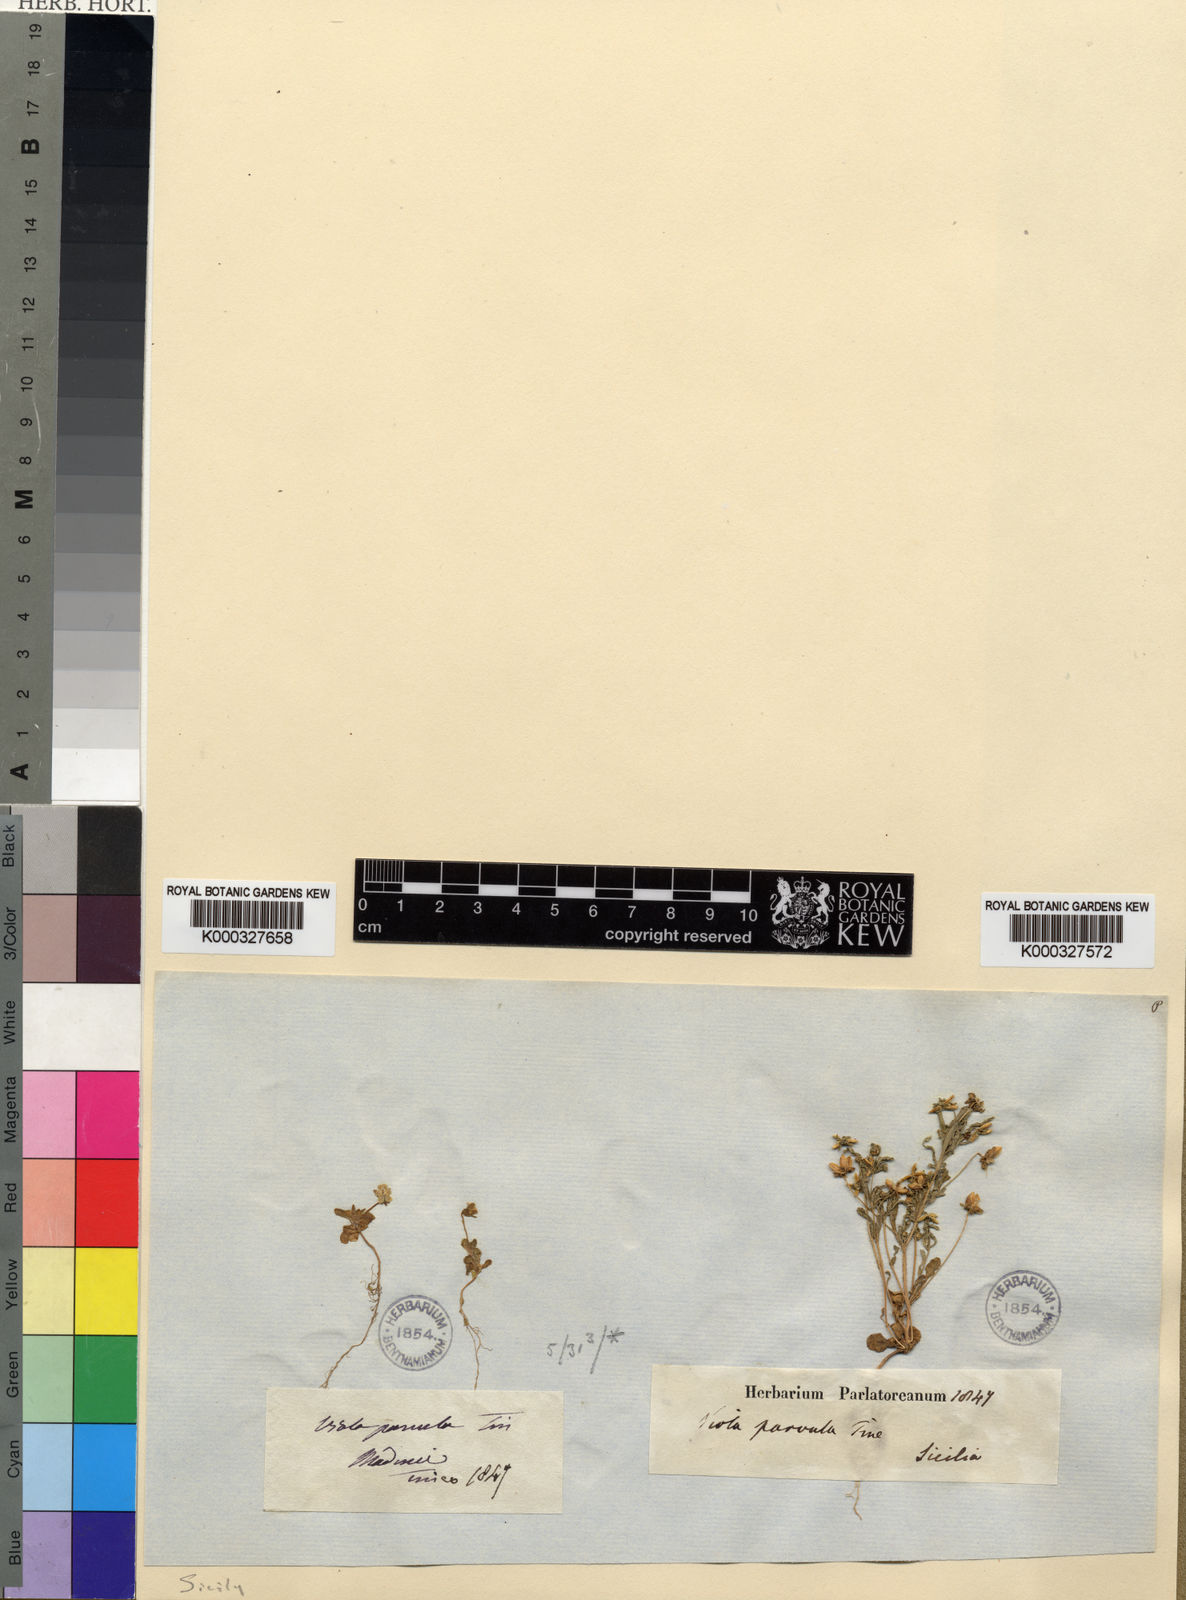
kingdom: Plantae
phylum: Tracheophyta
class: Magnoliopsida
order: Malpighiales
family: Violaceae
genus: Viola
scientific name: Viola parvula
